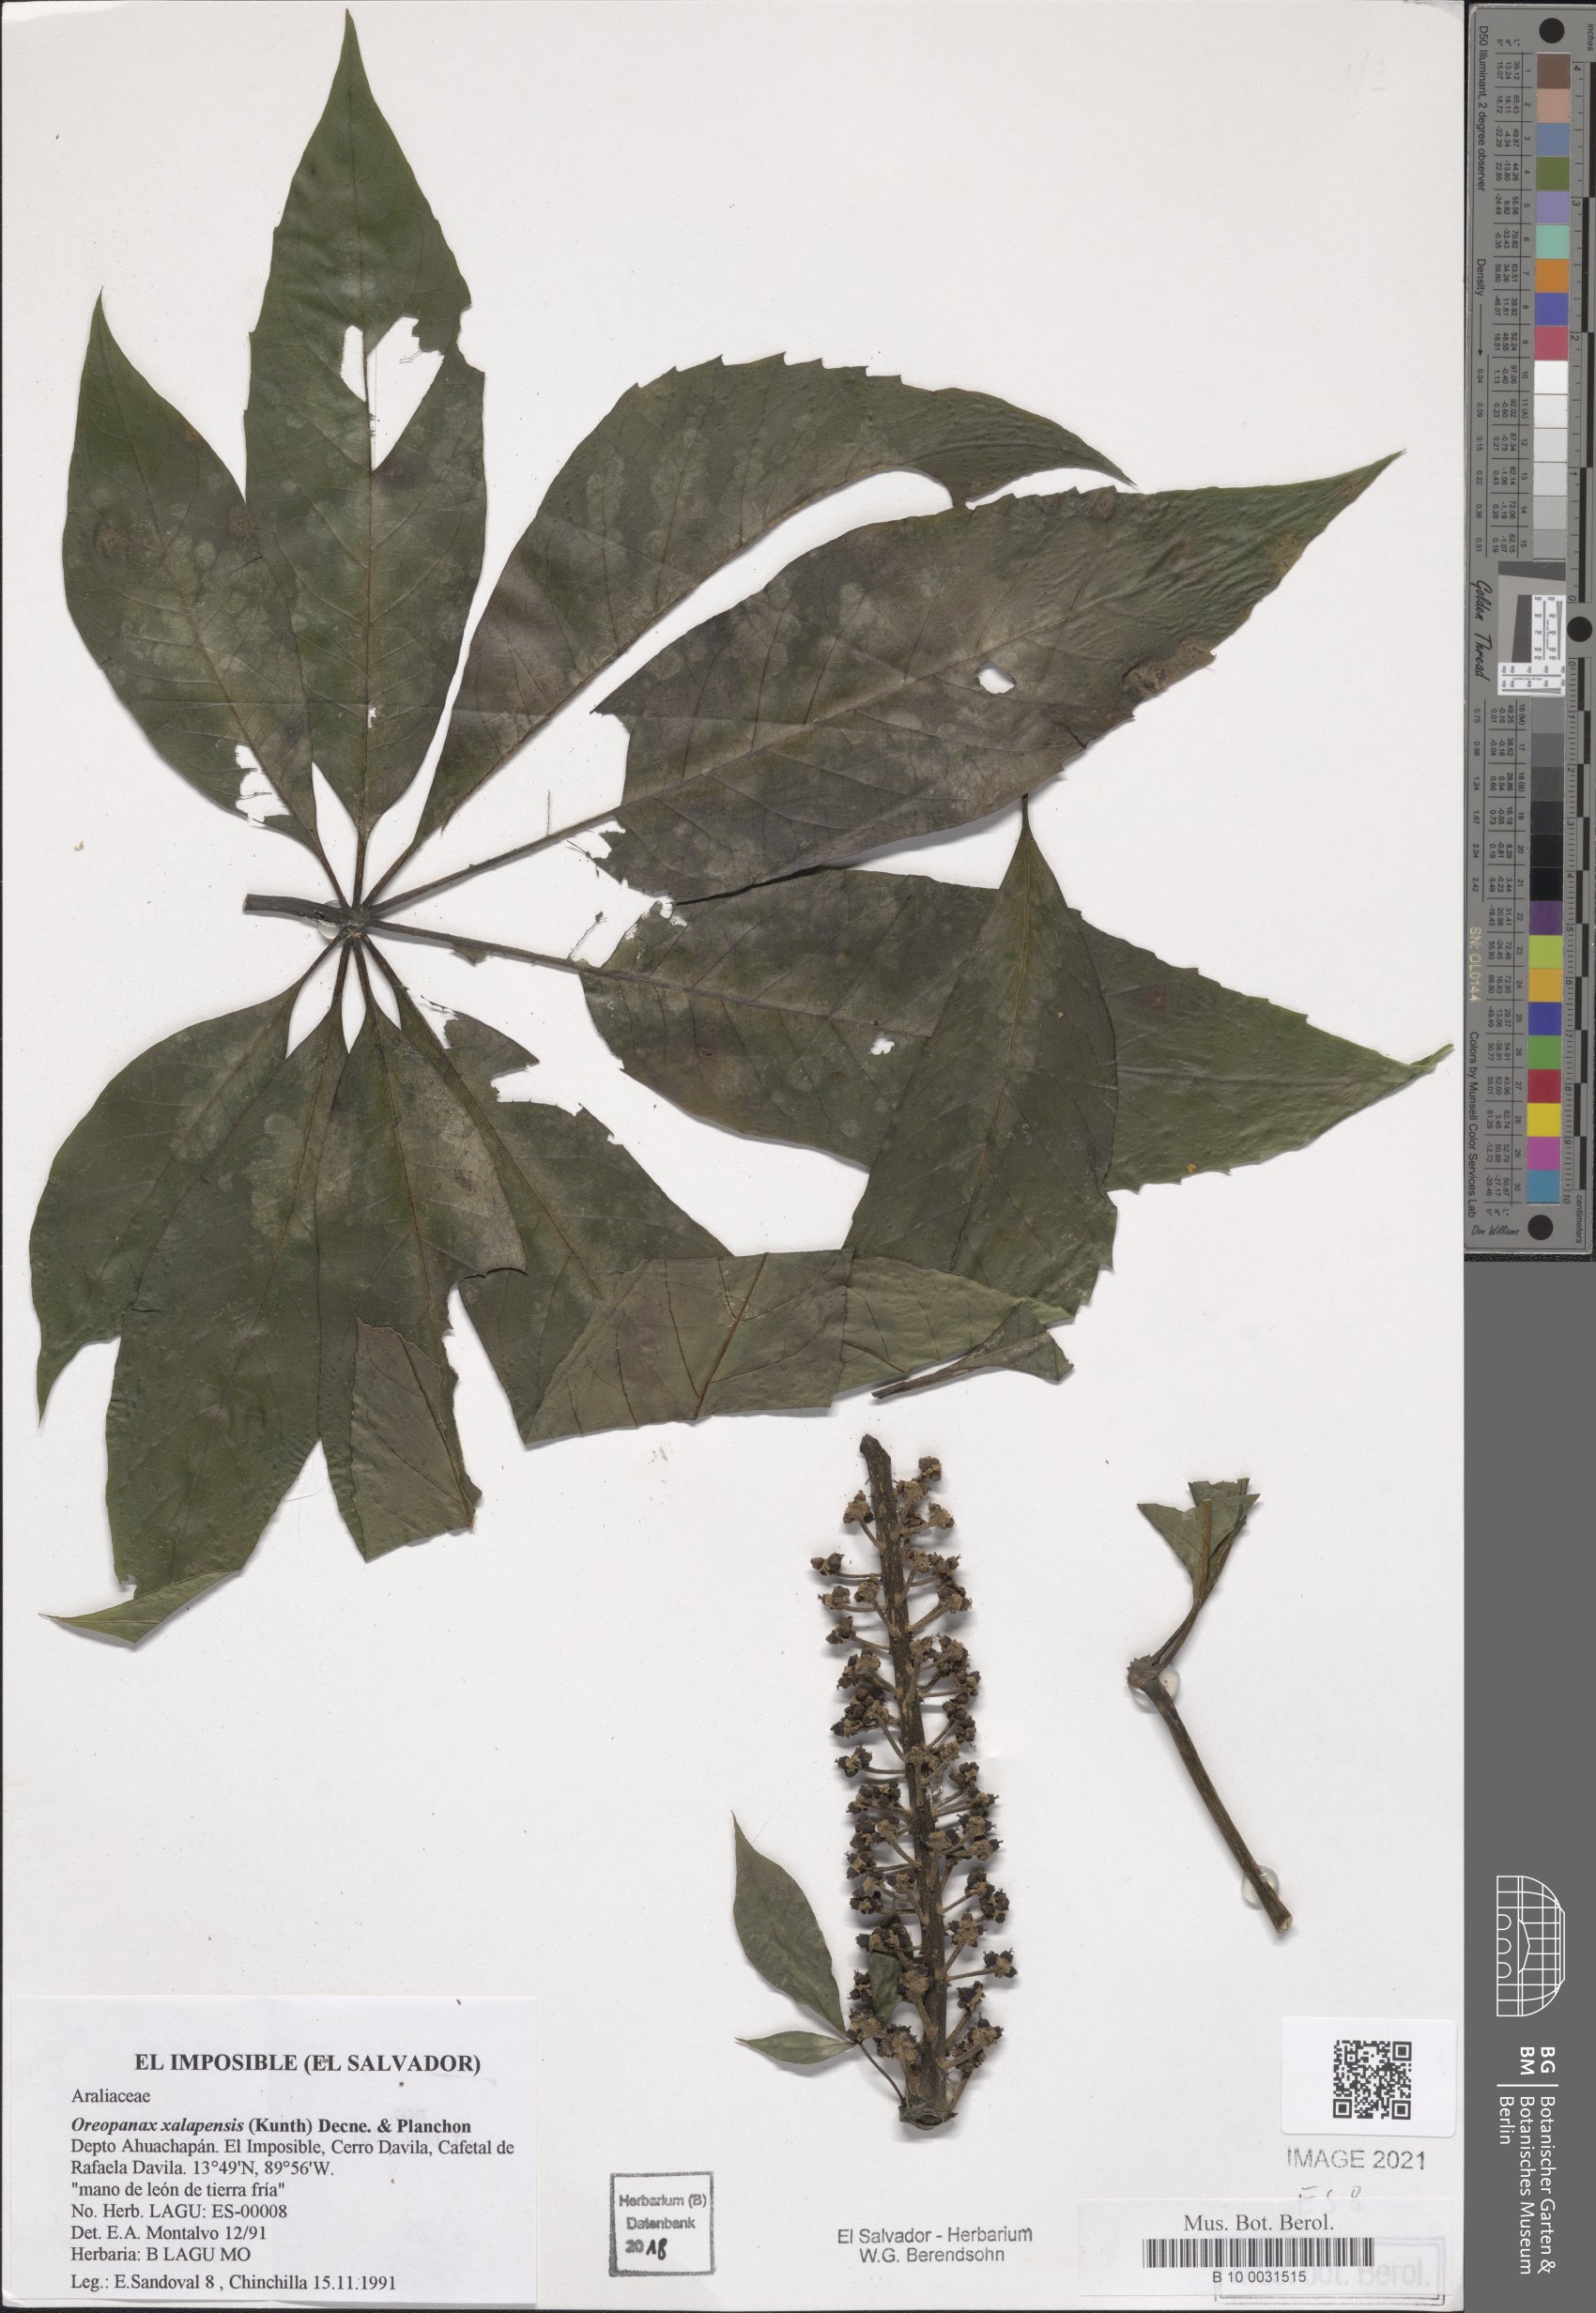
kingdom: Plantae
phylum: Tracheophyta
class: Magnoliopsida
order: Apiales
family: Araliaceae
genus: Oreopanax
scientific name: Oreopanax xalapensis
